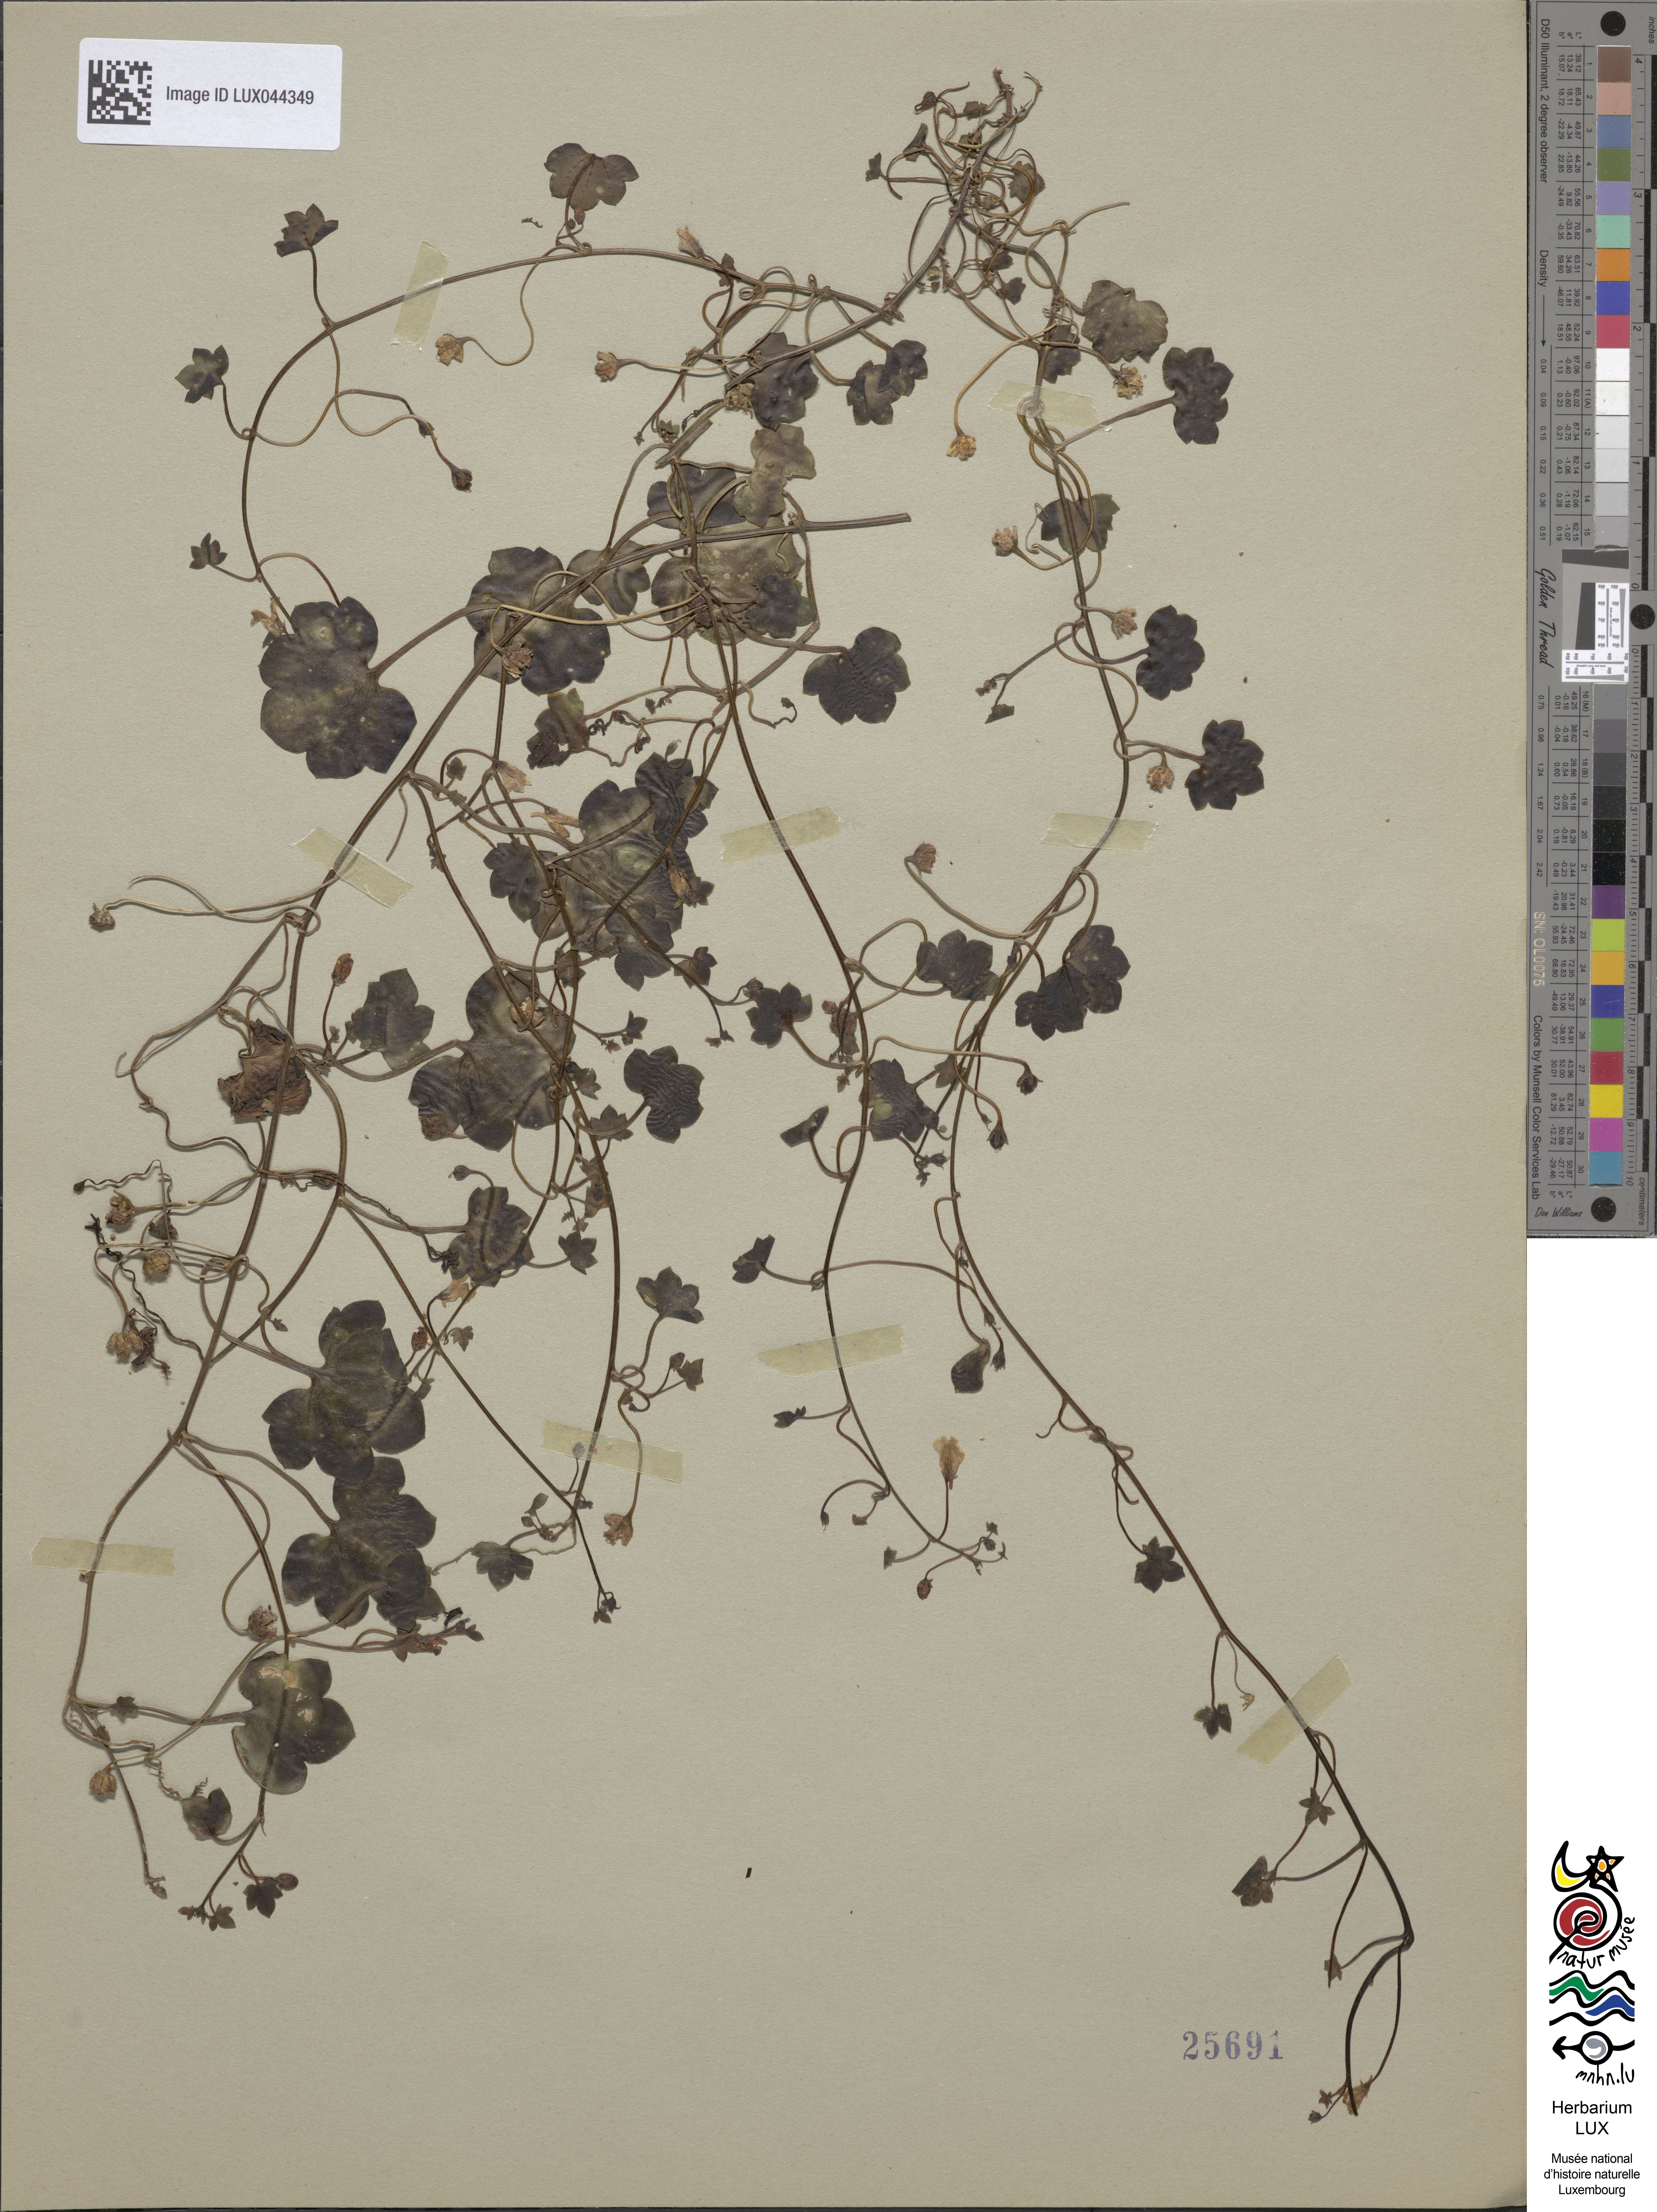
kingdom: Plantae
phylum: Tracheophyta
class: Magnoliopsida
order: Lamiales
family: Plantaginaceae
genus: Cymbalaria
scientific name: Cymbalaria muralis
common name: Ivy-leaved toadflax
